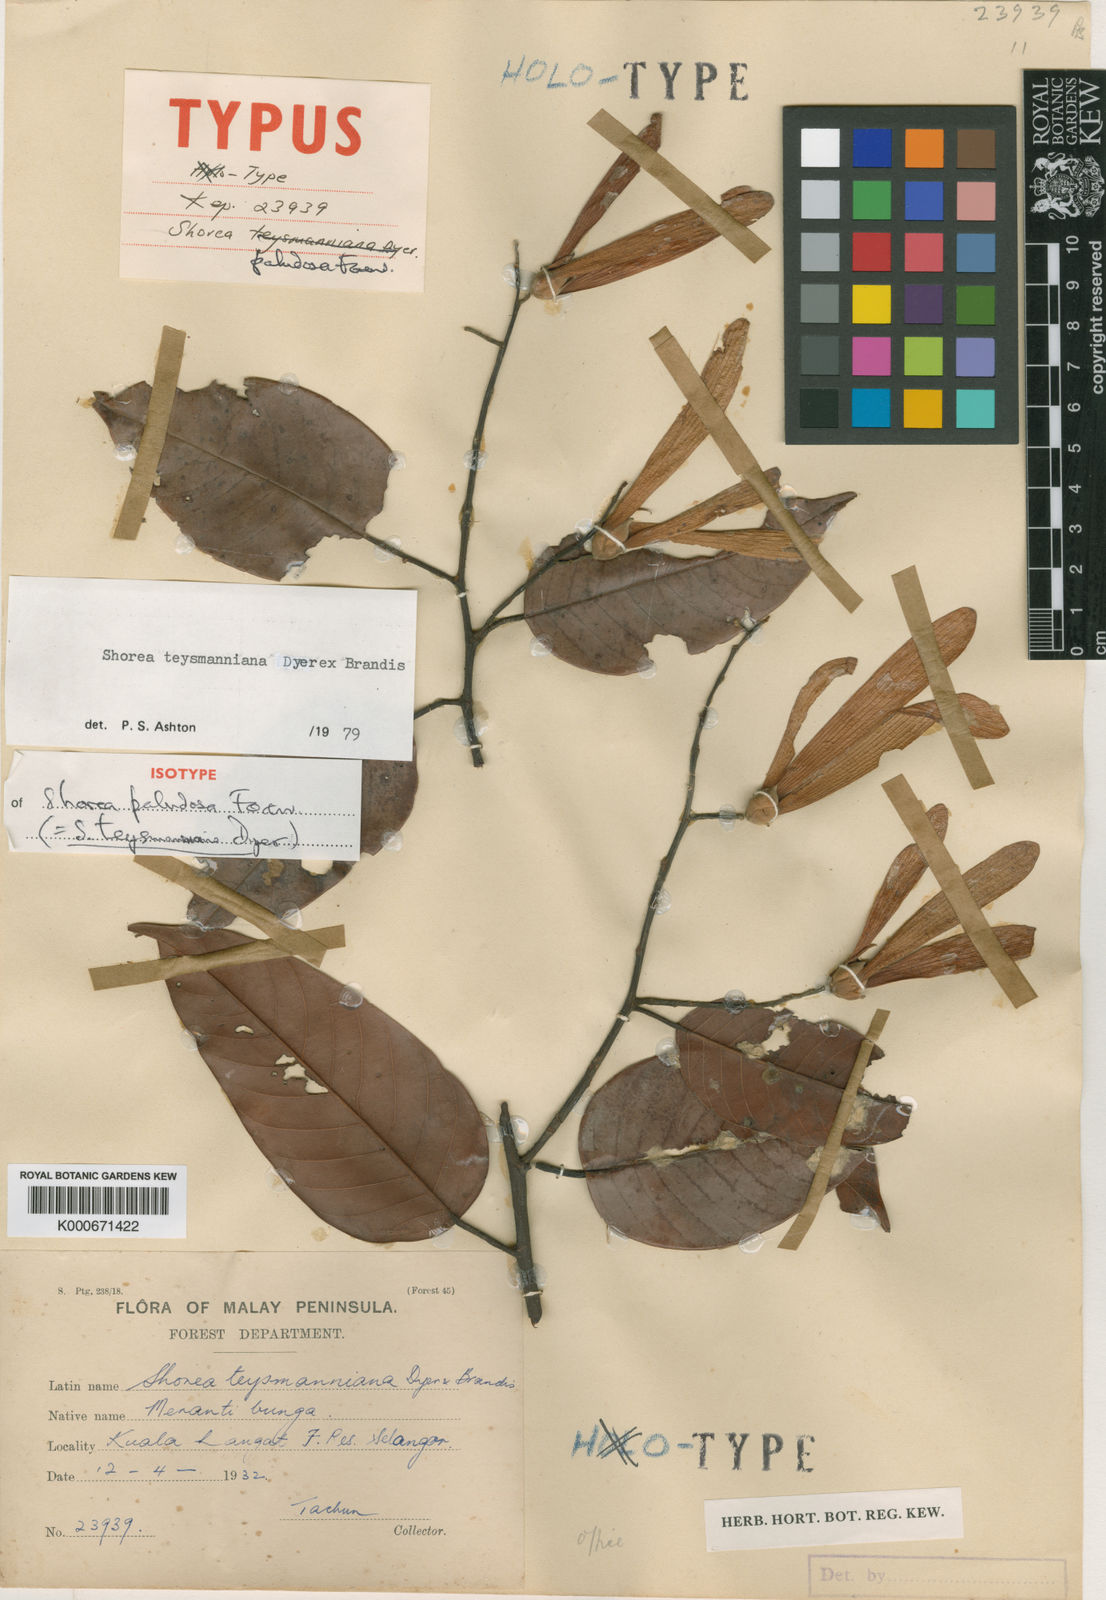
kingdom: Plantae
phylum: Tracheophyta
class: Magnoliopsida
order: Malvales
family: Dipterocarpaceae
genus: Shorea
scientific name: Shorea teysmanniana
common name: Light red meranti
